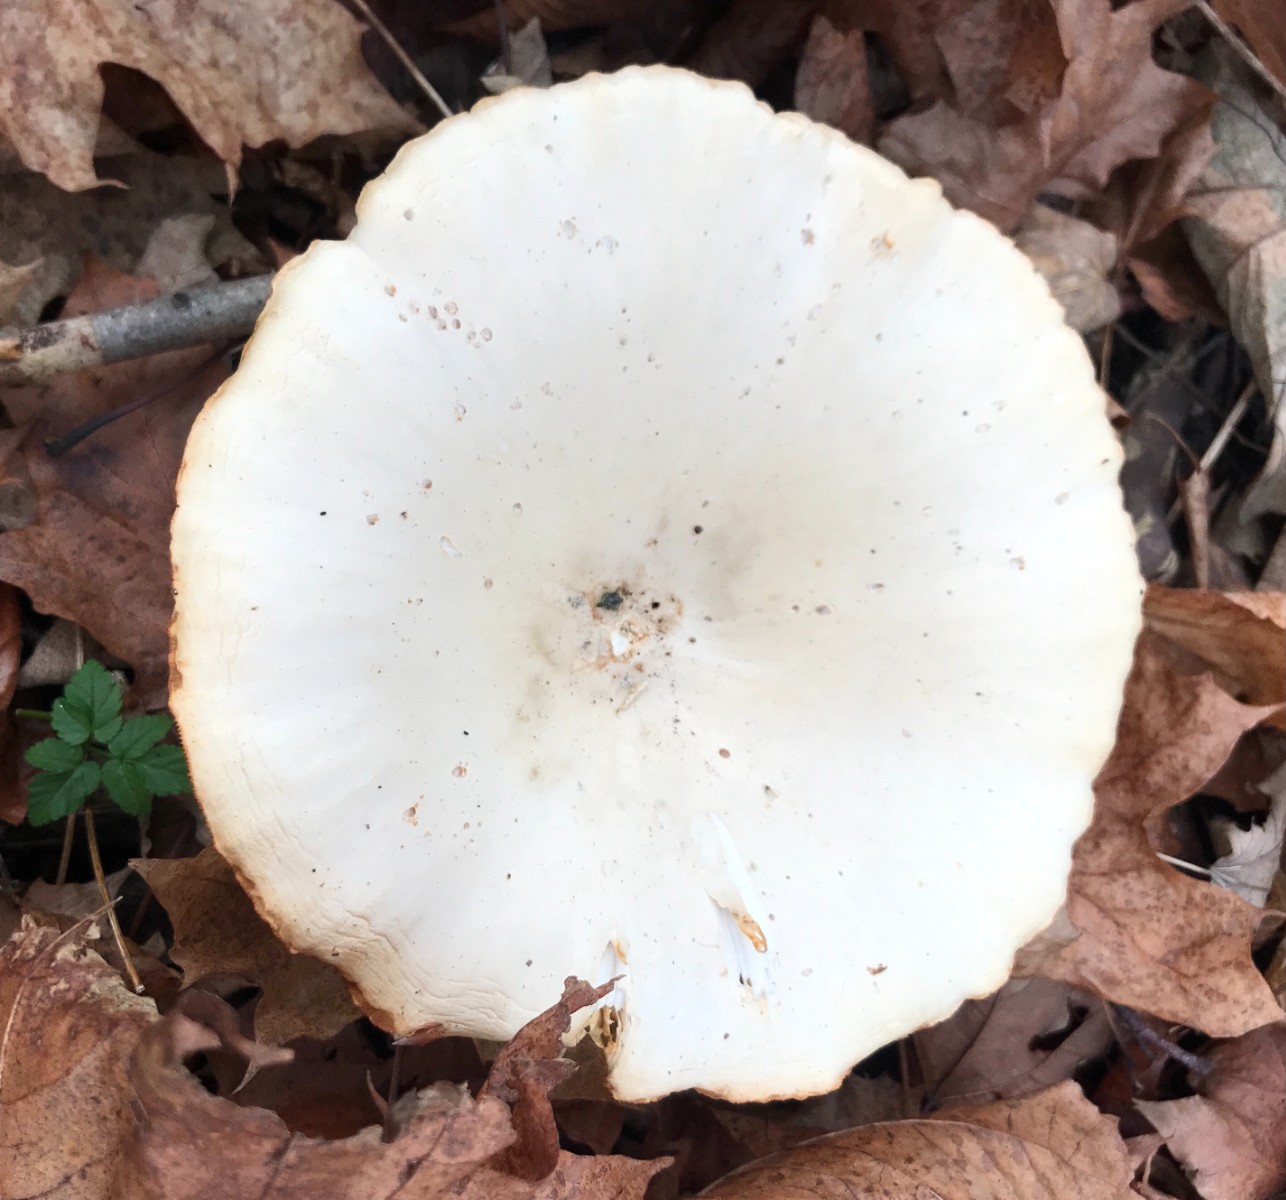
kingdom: Fungi
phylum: Basidiomycota
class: Agaricomycetes
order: Agaricales
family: Tricholomataceae
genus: Infundibulicybe
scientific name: Infundibulicybe geotropa
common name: stor tragthat
